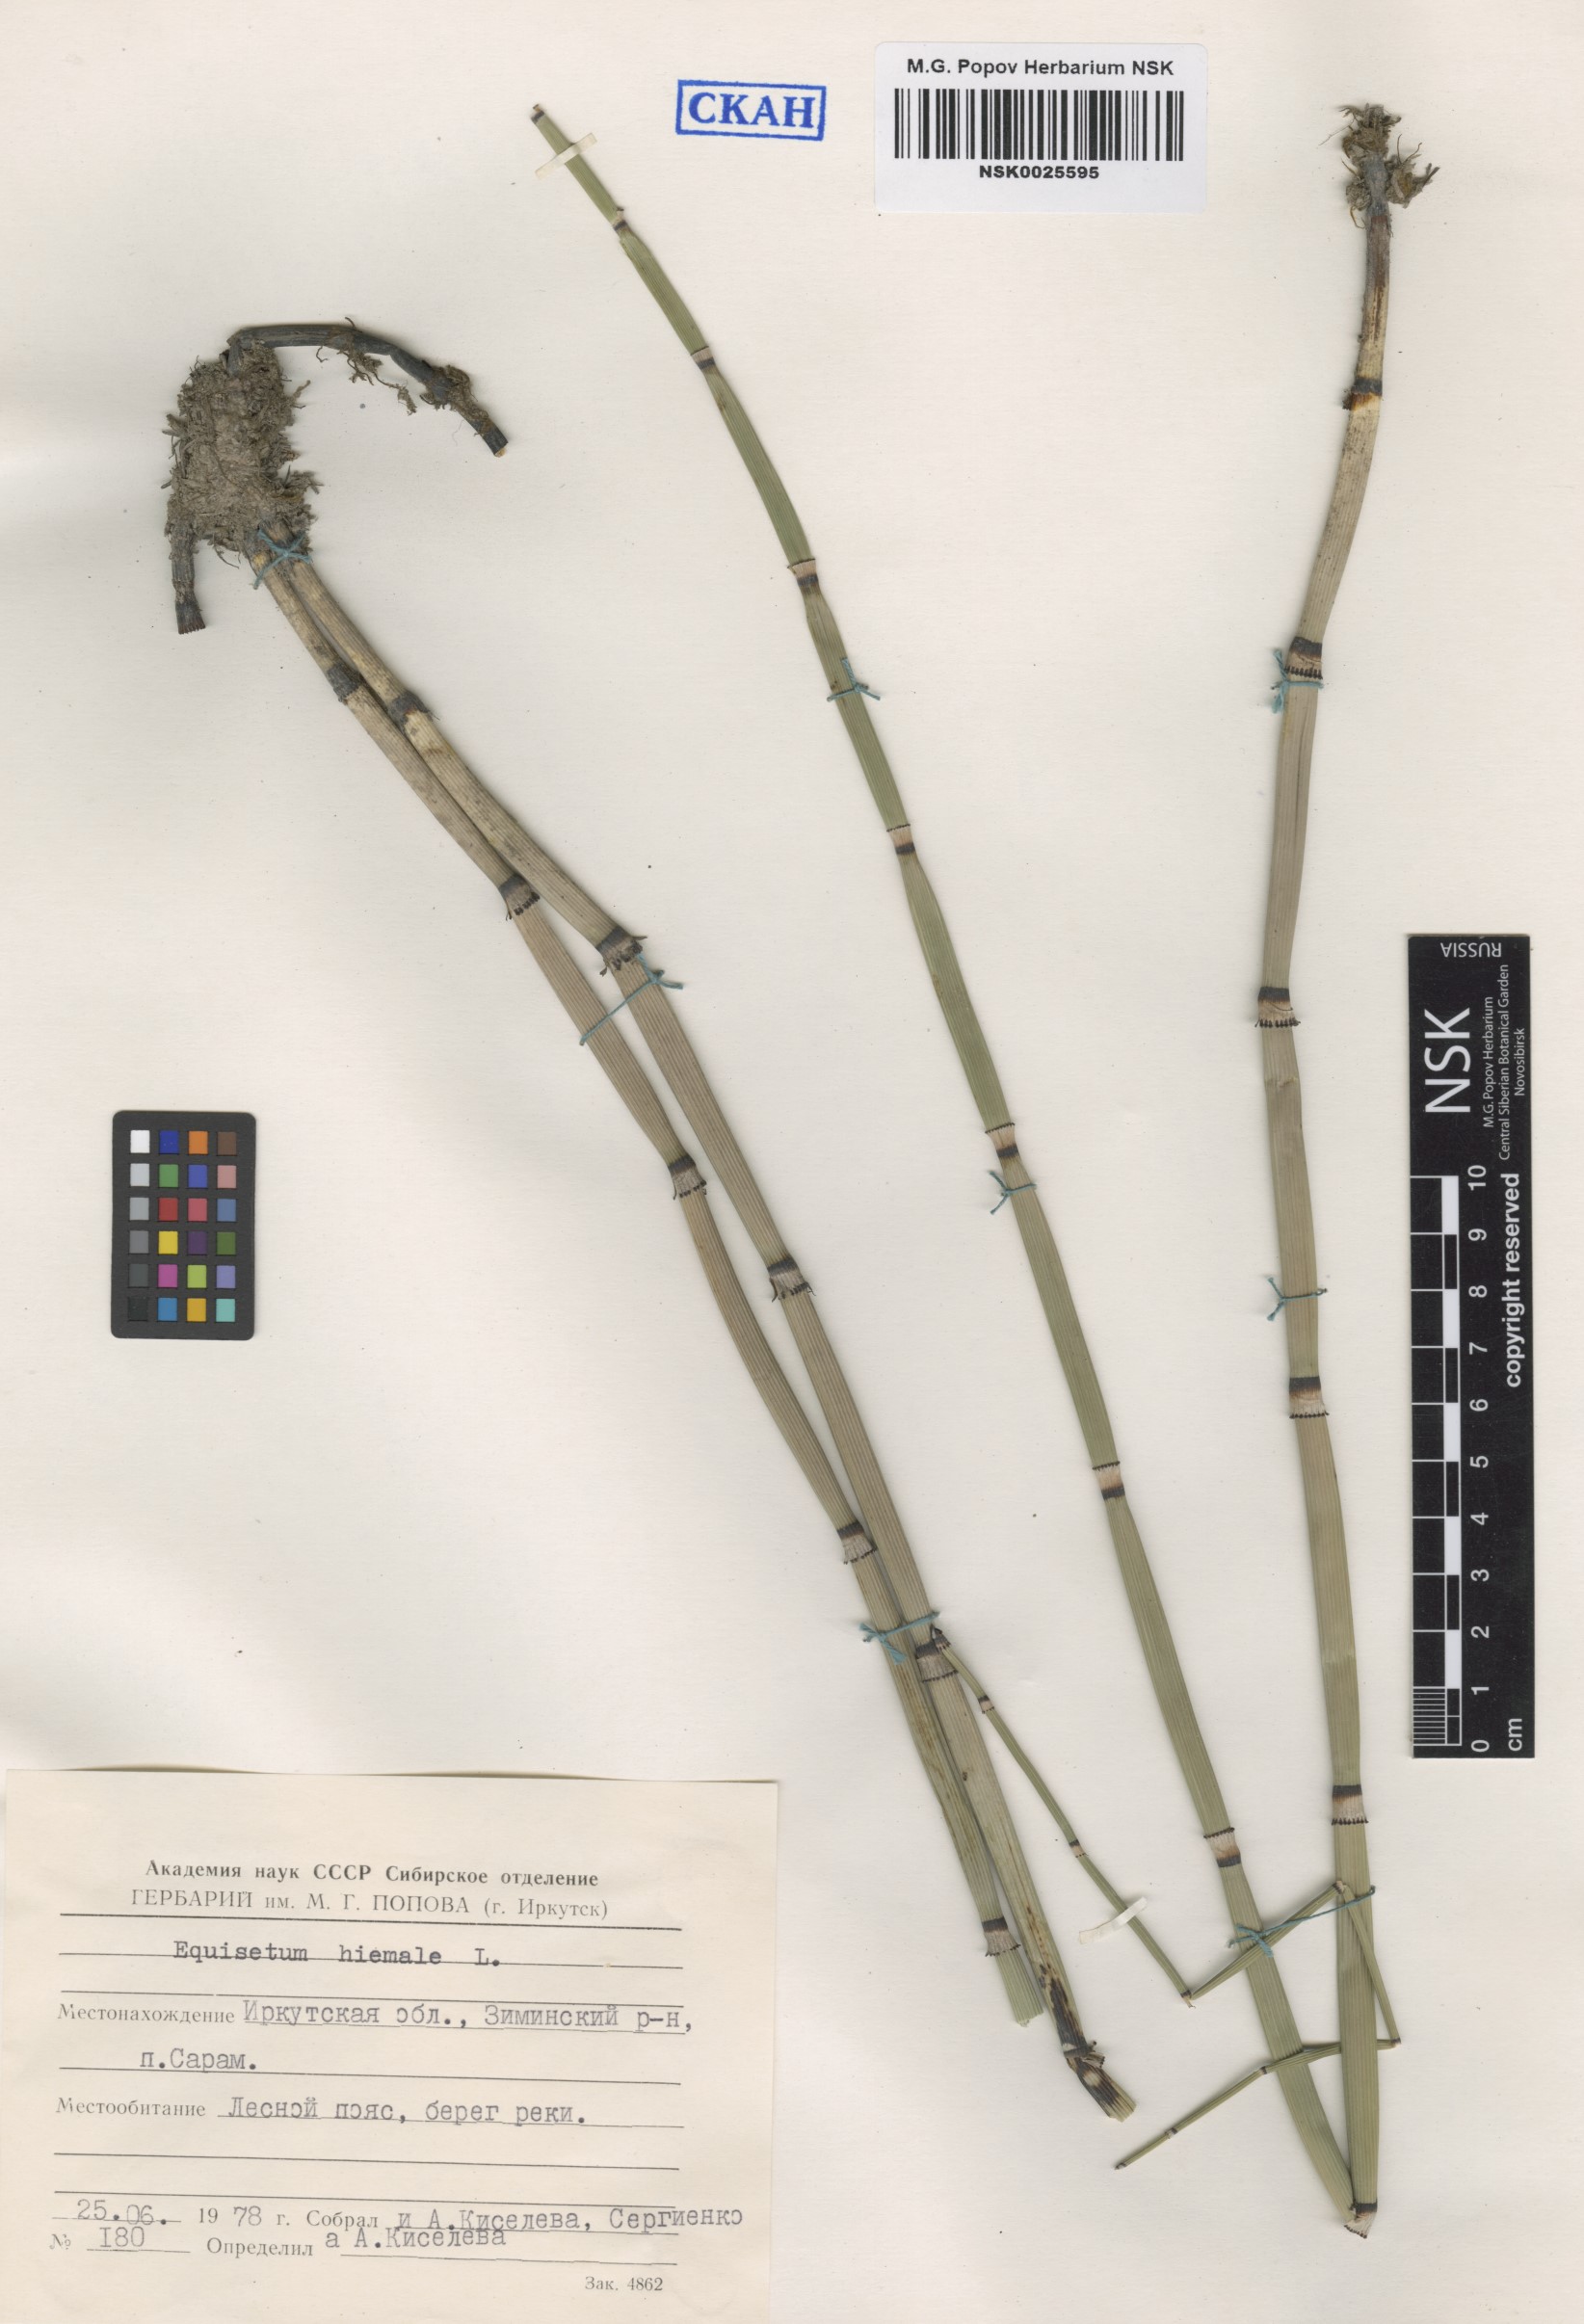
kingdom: Plantae
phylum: Tracheophyta
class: Polypodiopsida
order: Equisetales
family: Equisetaceae
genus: Equisetum
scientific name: Equisetum hyemale
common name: Rough horsetail
